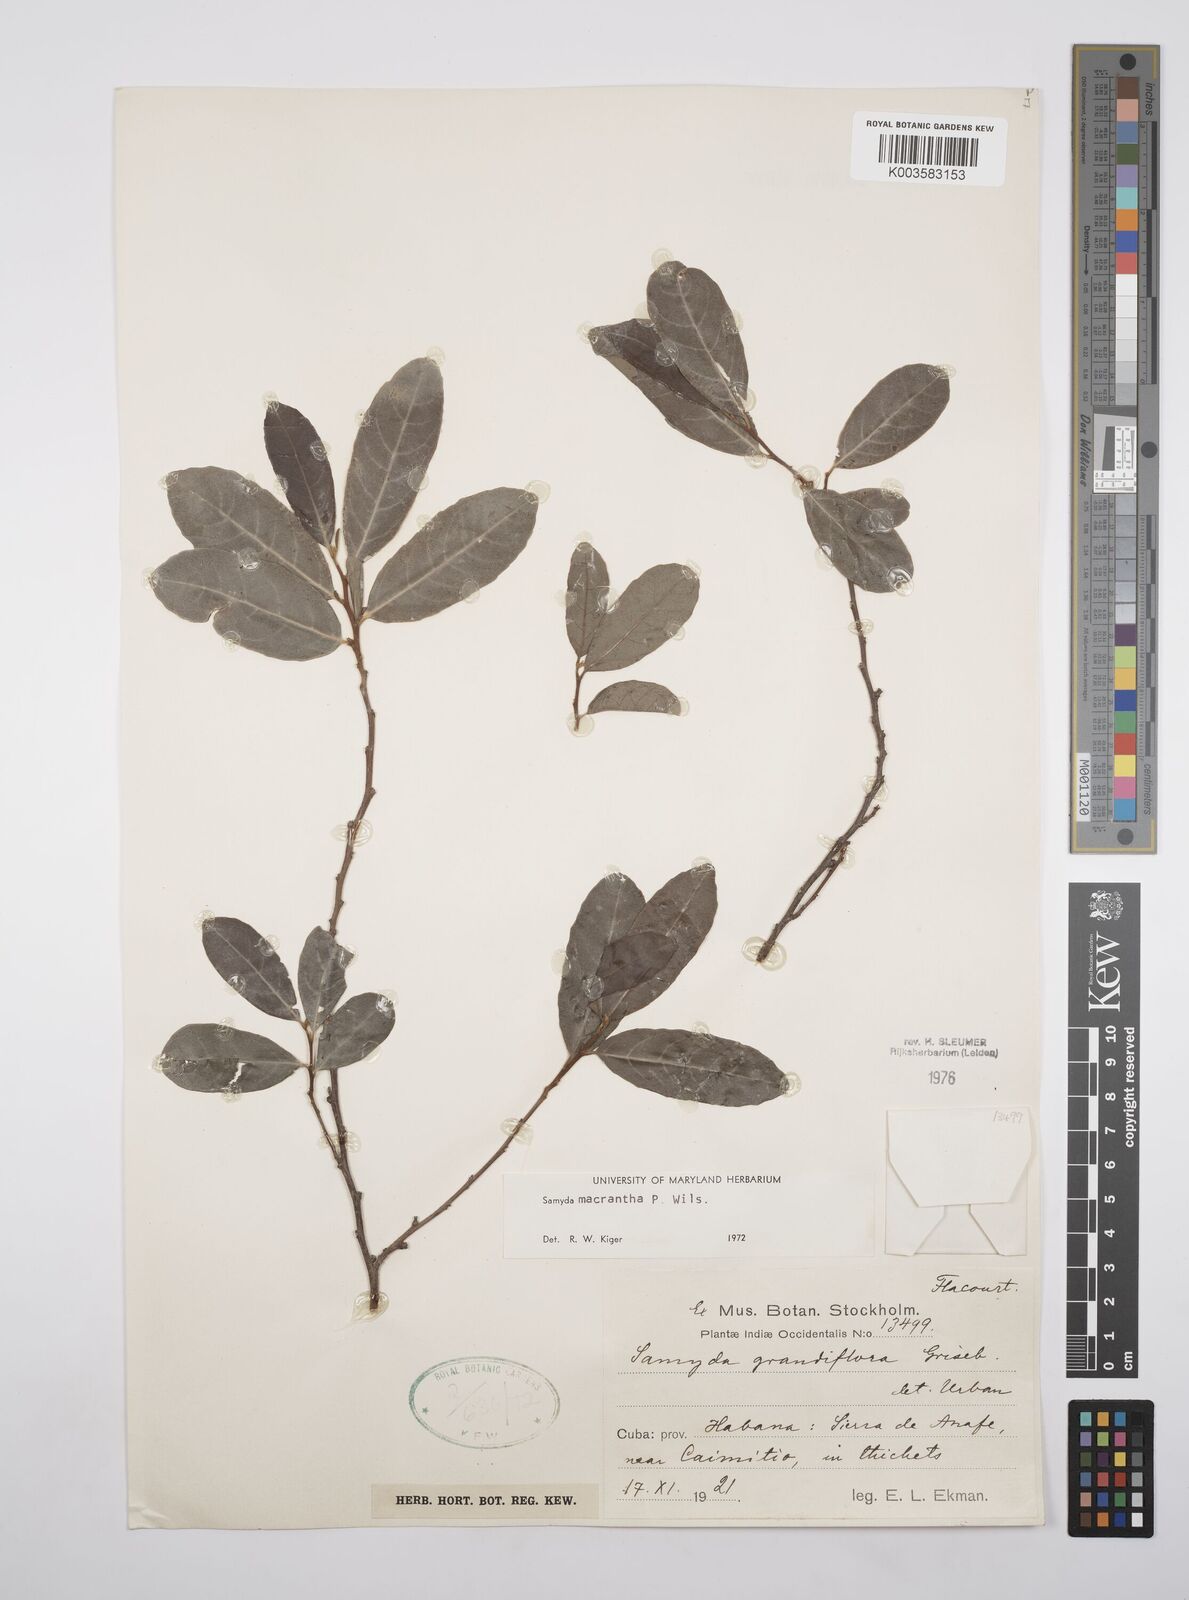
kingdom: Plantae
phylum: Tracheophyta
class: Magnoliopsida
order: Malpighiales
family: Salicaceae
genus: Casearia
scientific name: Casearia dolichanthera
